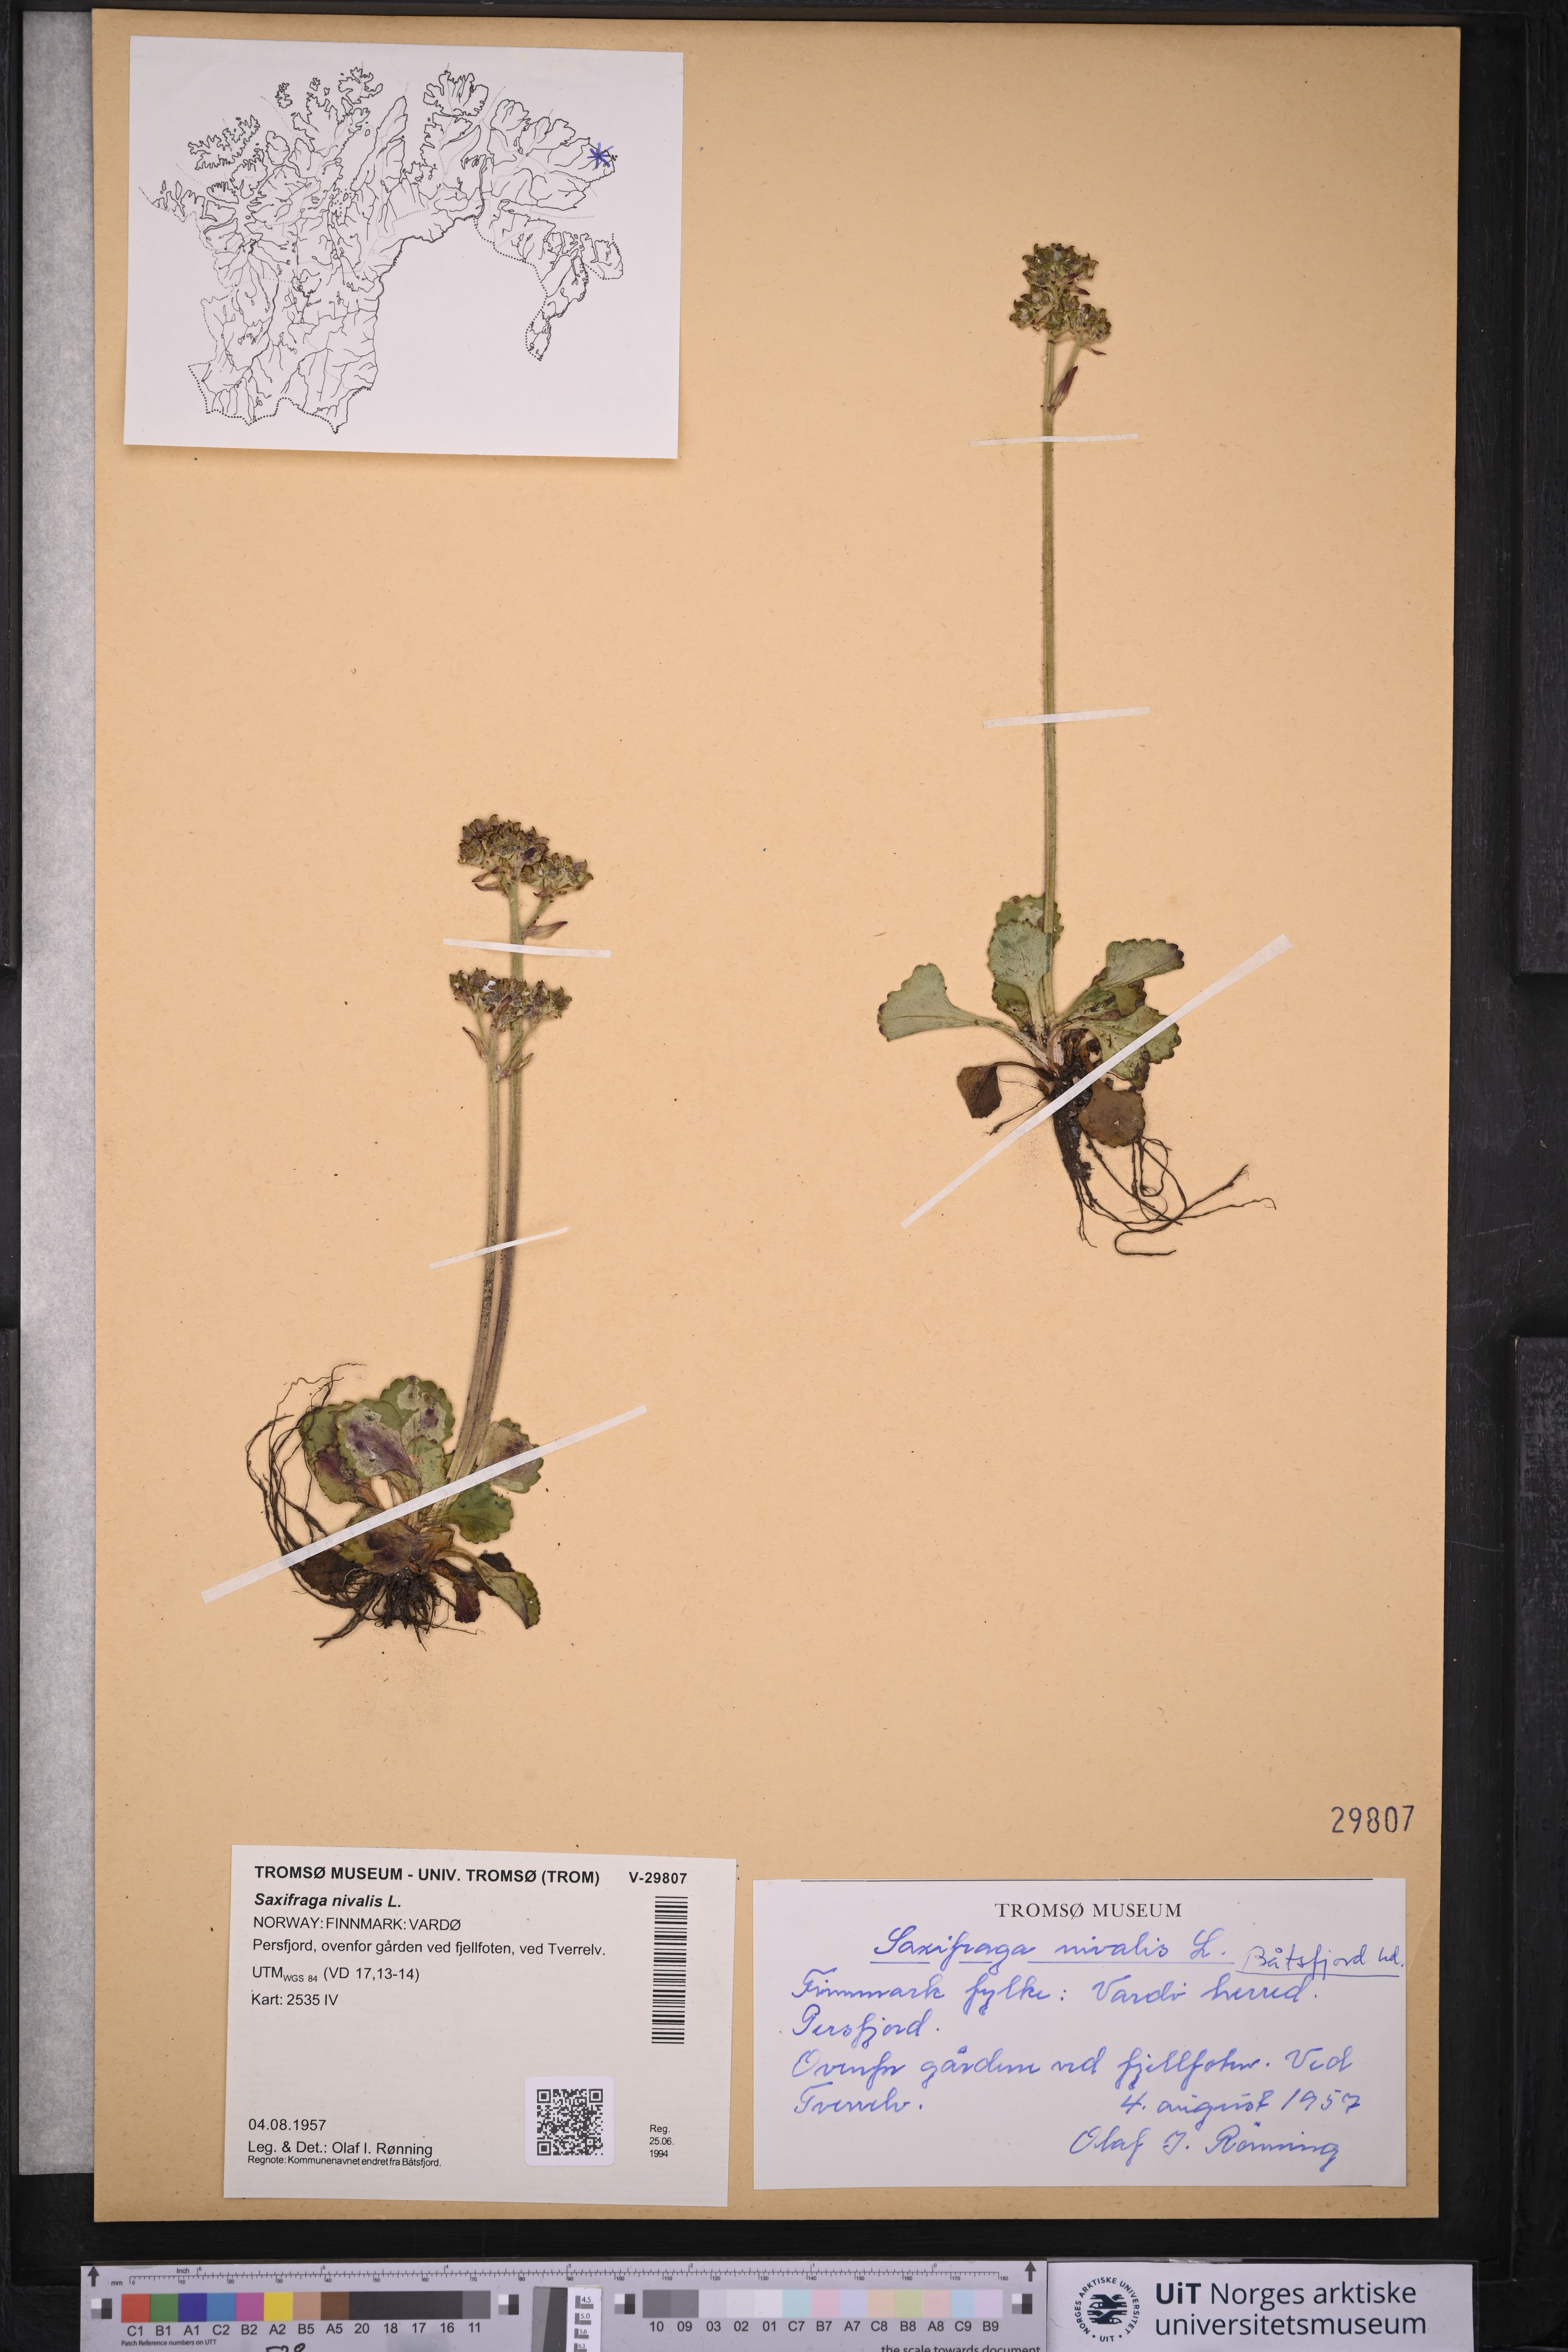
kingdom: Plantae
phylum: Tracheophyta
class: Magnoliopsida
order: Saxifragales
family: Saxifragaceae
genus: Micranthes
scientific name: Micranthes nivalis
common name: Alpine saxifrage
